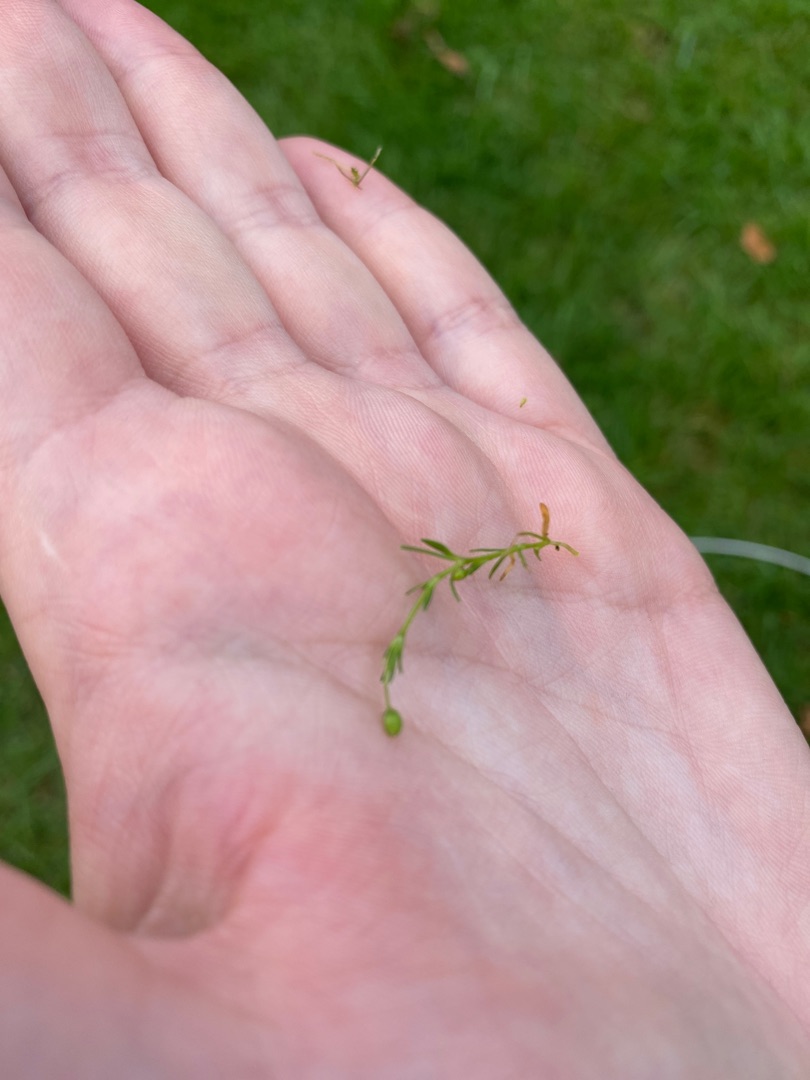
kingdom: Plantae
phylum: Tracheophyta
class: Magnoliopsida
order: Caryophyllales
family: Caryophyllaceae
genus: Sagina
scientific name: Sagina procumbens
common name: Almindelig firling
